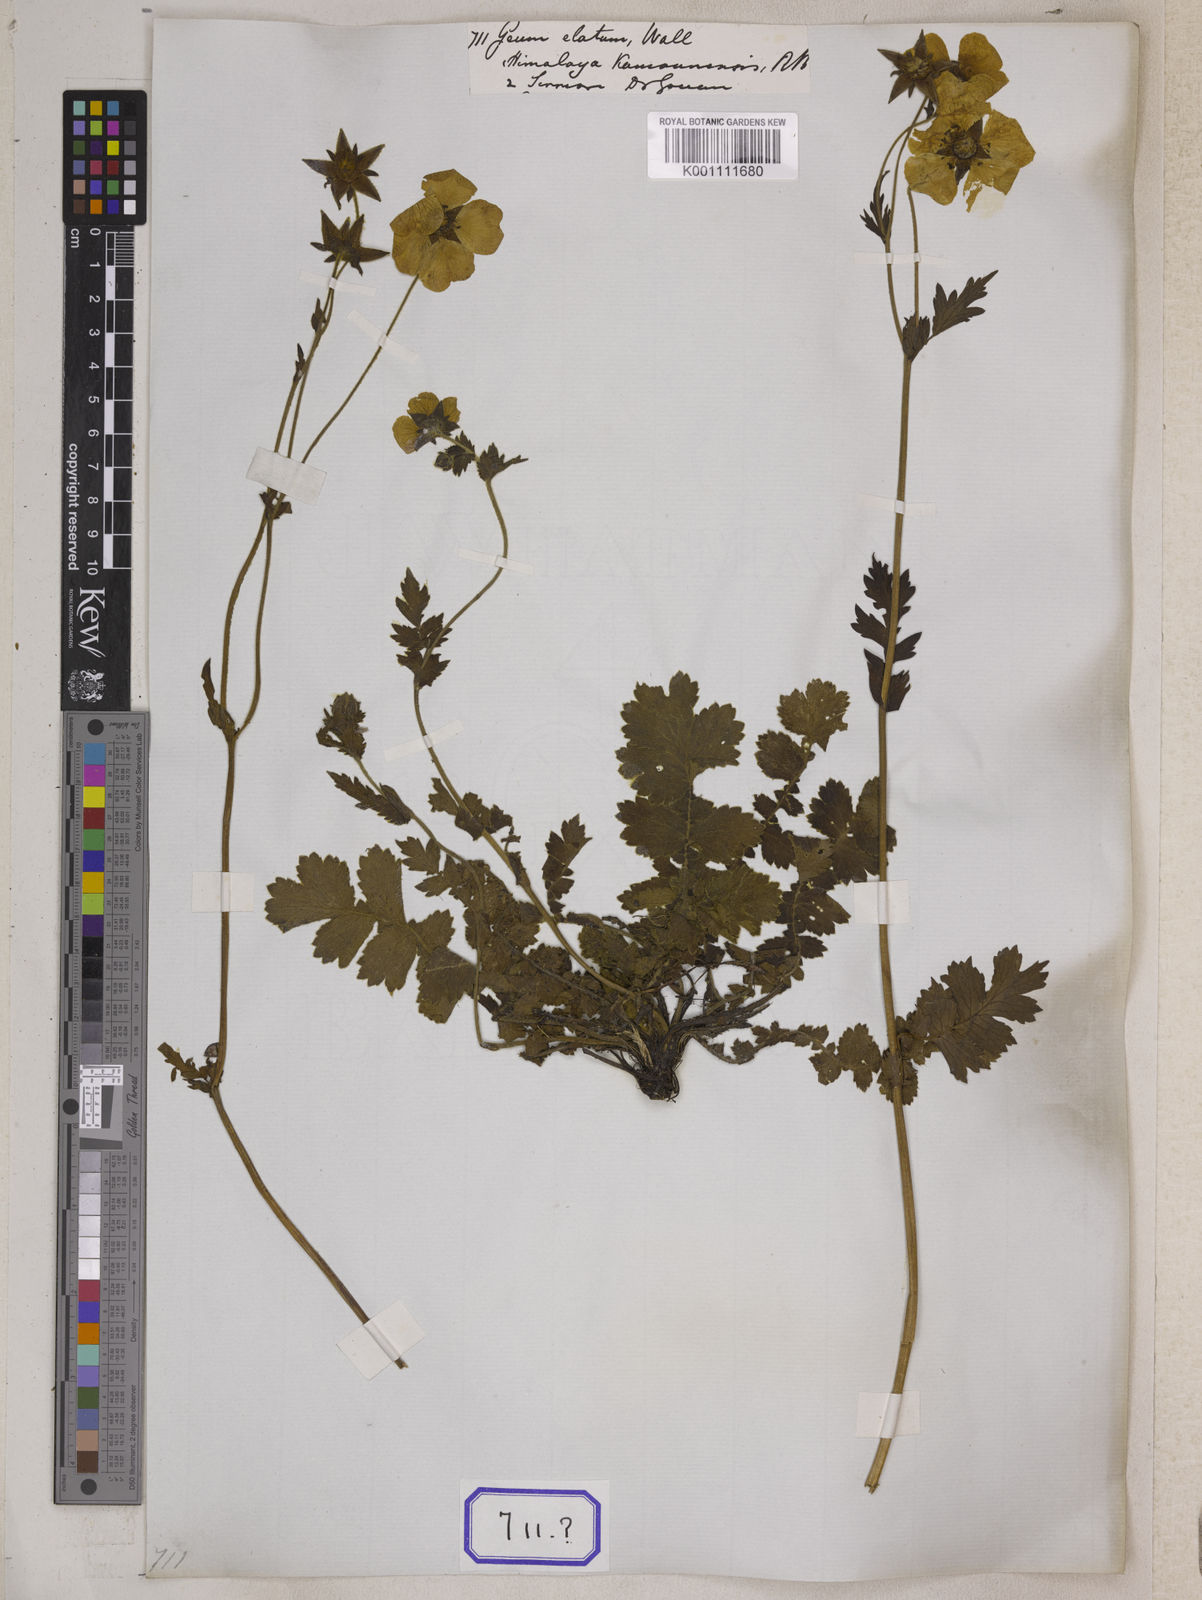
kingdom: Plantae
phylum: Tracheophyta
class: Magnoliopsida
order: Rosales
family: Rosaceae
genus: Geum
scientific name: Geum
